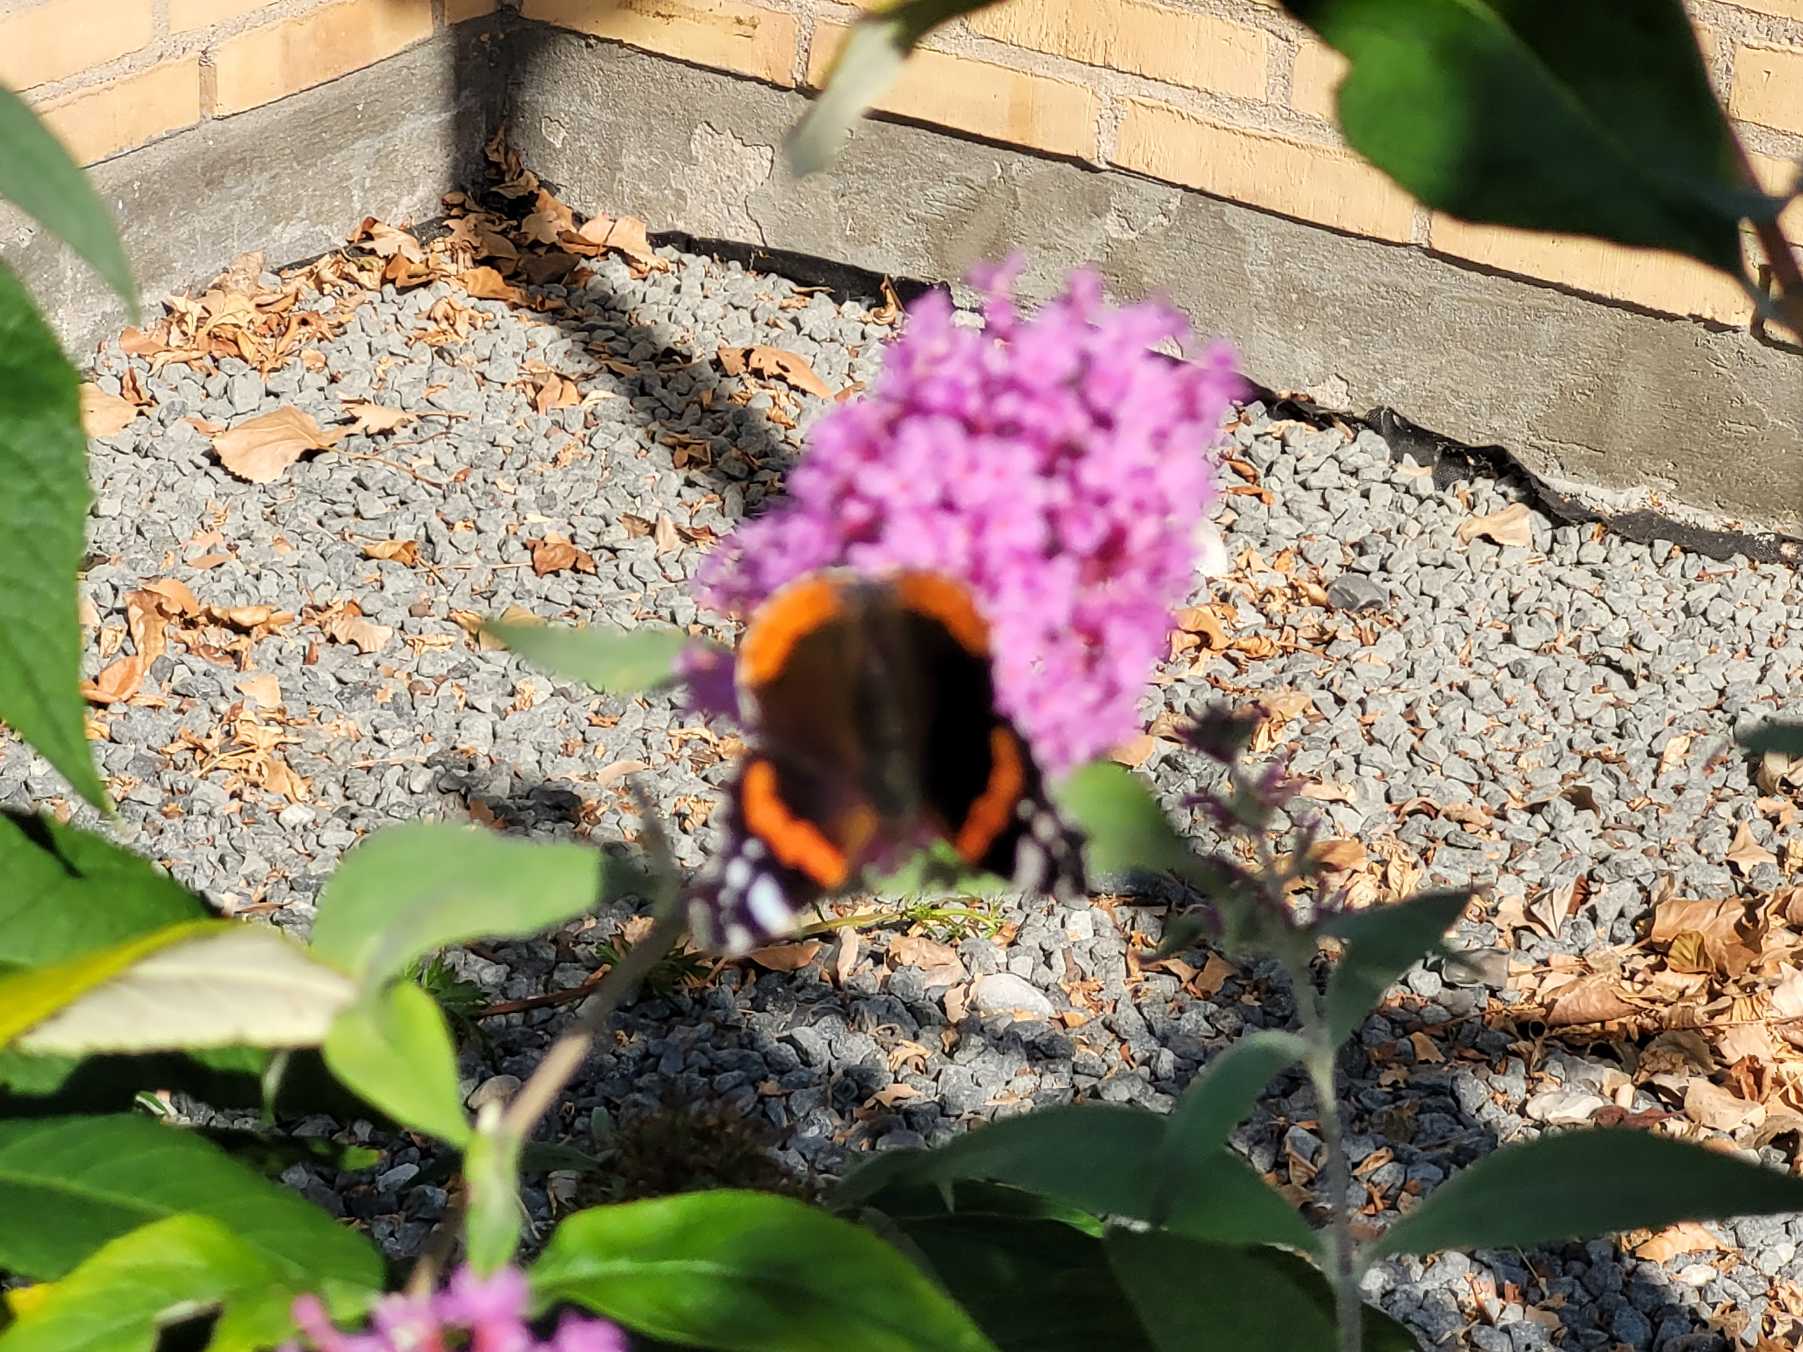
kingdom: Animalia
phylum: Arthropoda
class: Insecta
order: Lepidoptera
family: Nymphalidae
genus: Vanessa
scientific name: Vanessa atalanta
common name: Admiral
